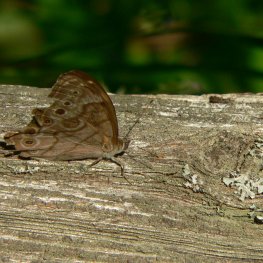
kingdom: Animalia
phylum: Arthropoda
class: Insecta
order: Lepidoptera
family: Nymphalidae
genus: Lethe
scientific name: Lethe anthedon
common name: Northern Pearly-Eye
